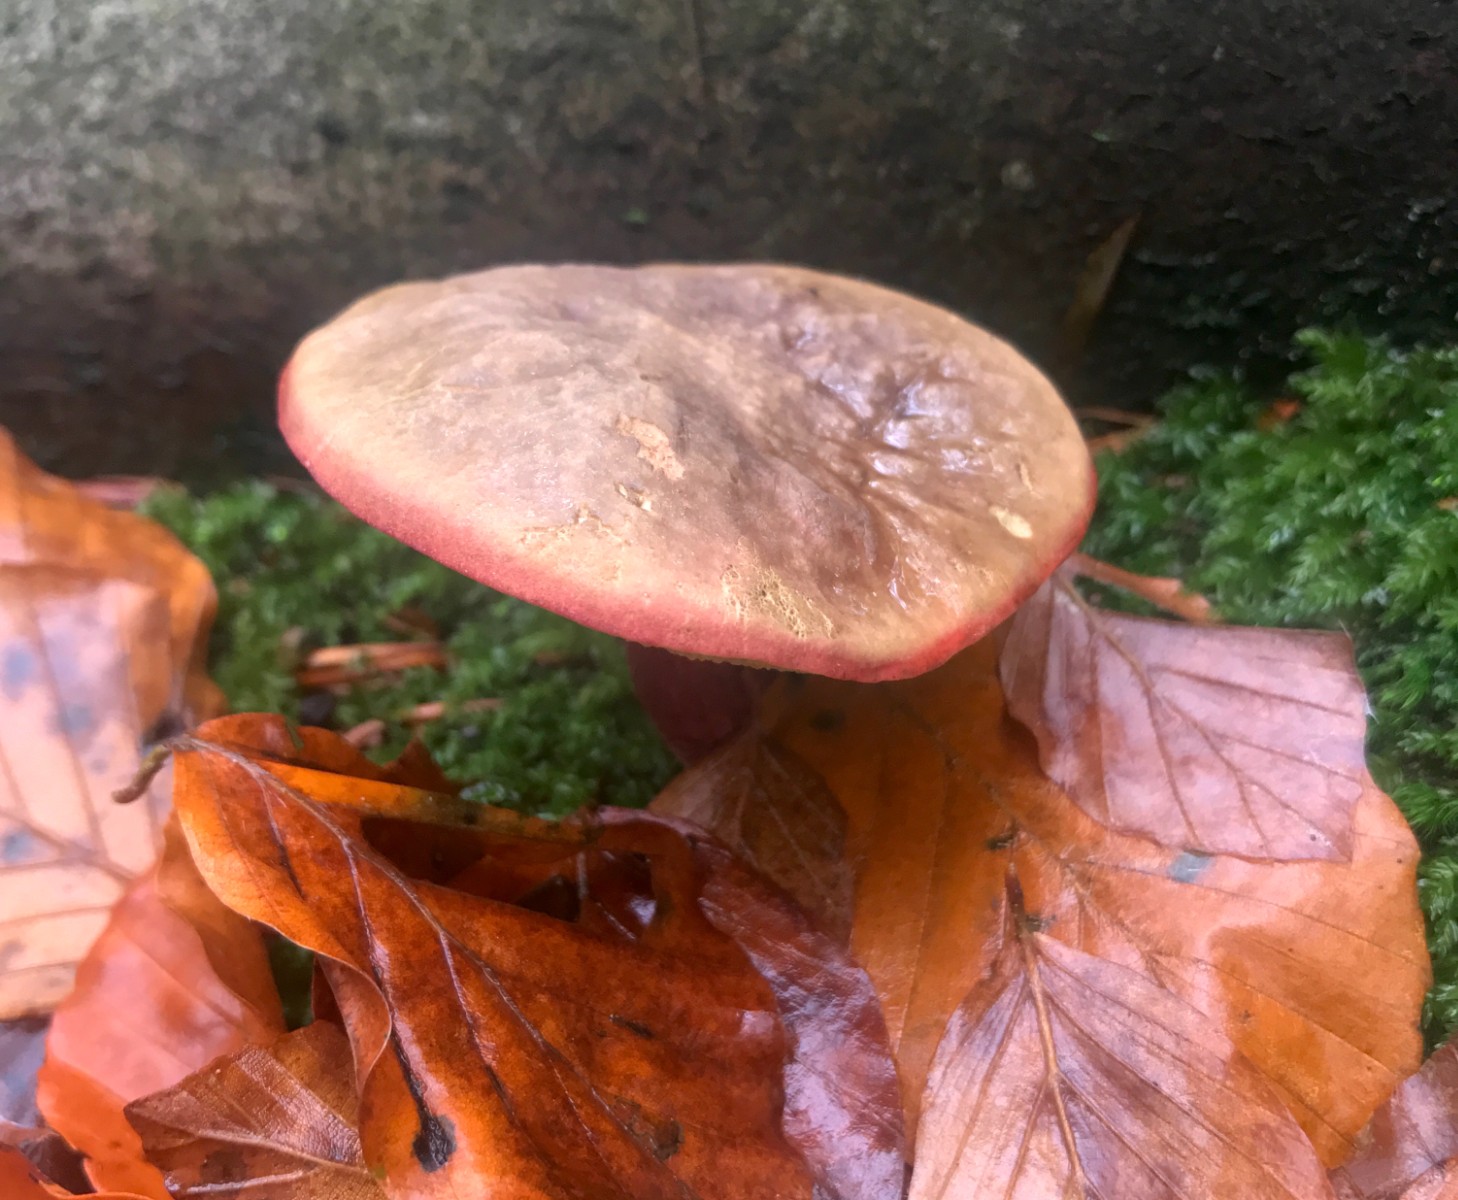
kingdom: Fungi
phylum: Basidiomycota
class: Agaricomycetes
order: Boletales
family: Boletaceae
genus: Xerocomellus
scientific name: Xerocomellus pruinatus
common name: dugget rørhat
